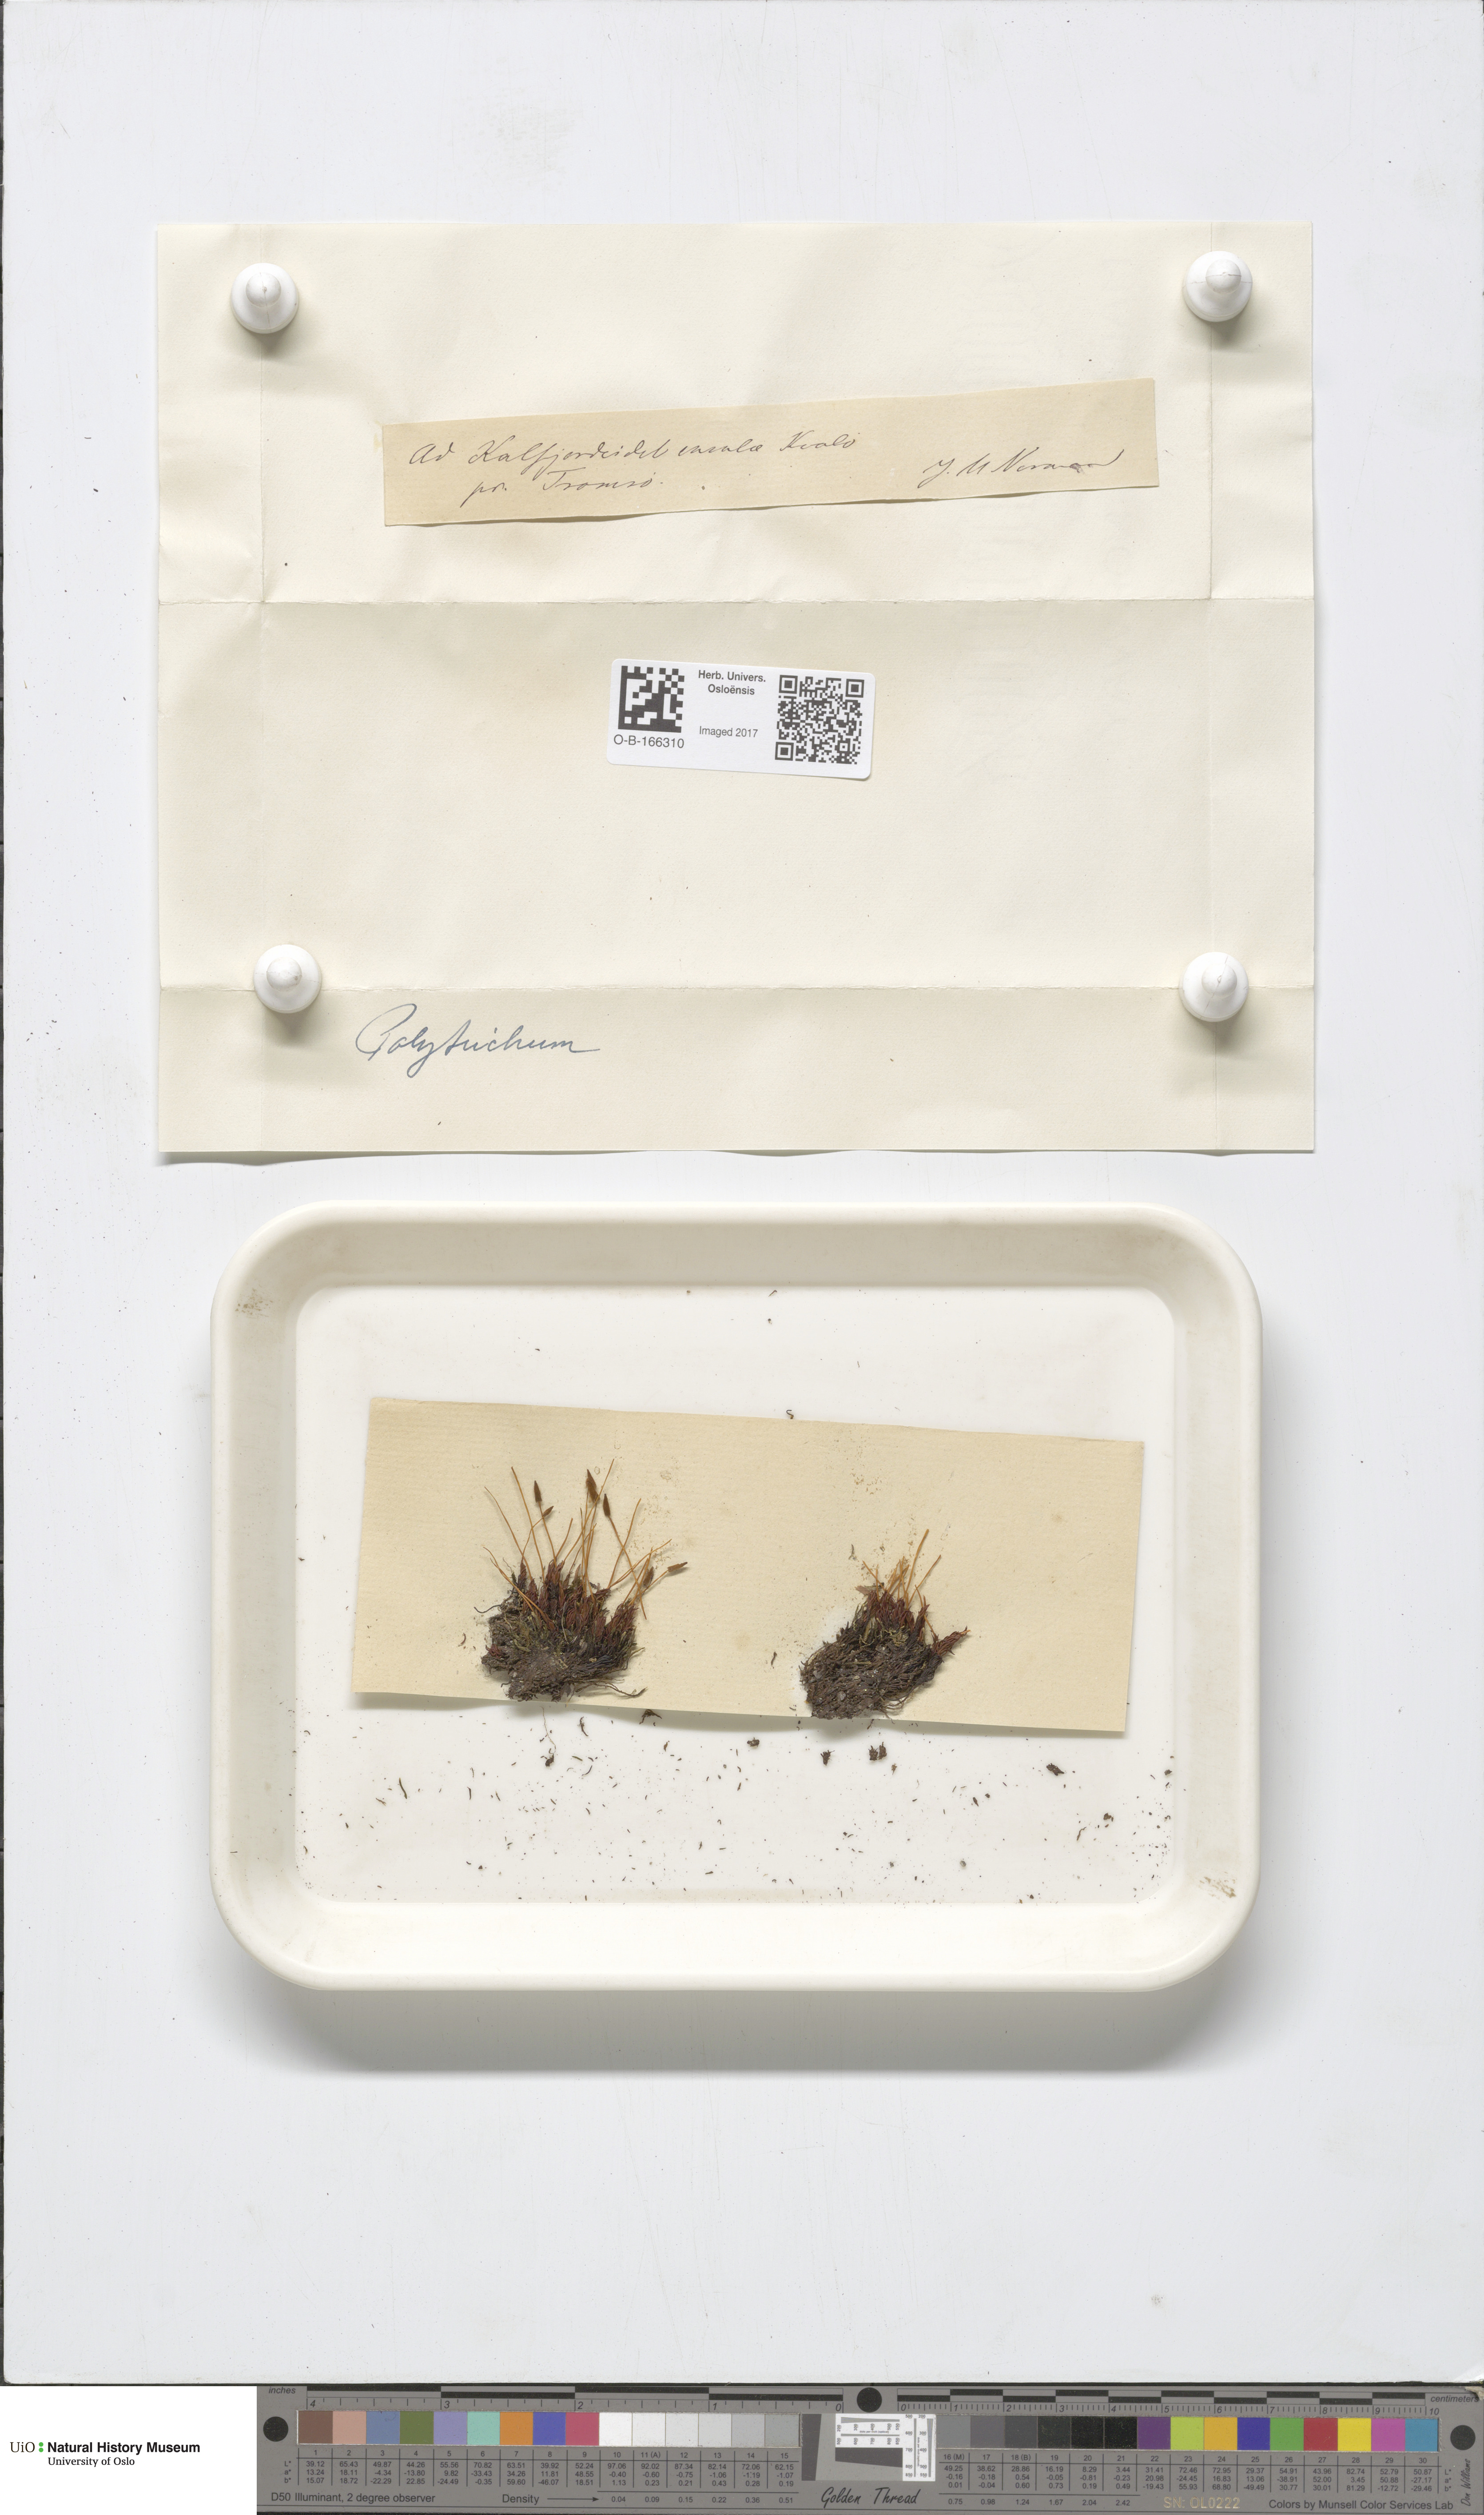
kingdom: Plantae
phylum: Bryophyta
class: Polytrichopsida
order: Polytrichales
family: Polytrichaceae
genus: Polytrichum
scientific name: Polytrichum
